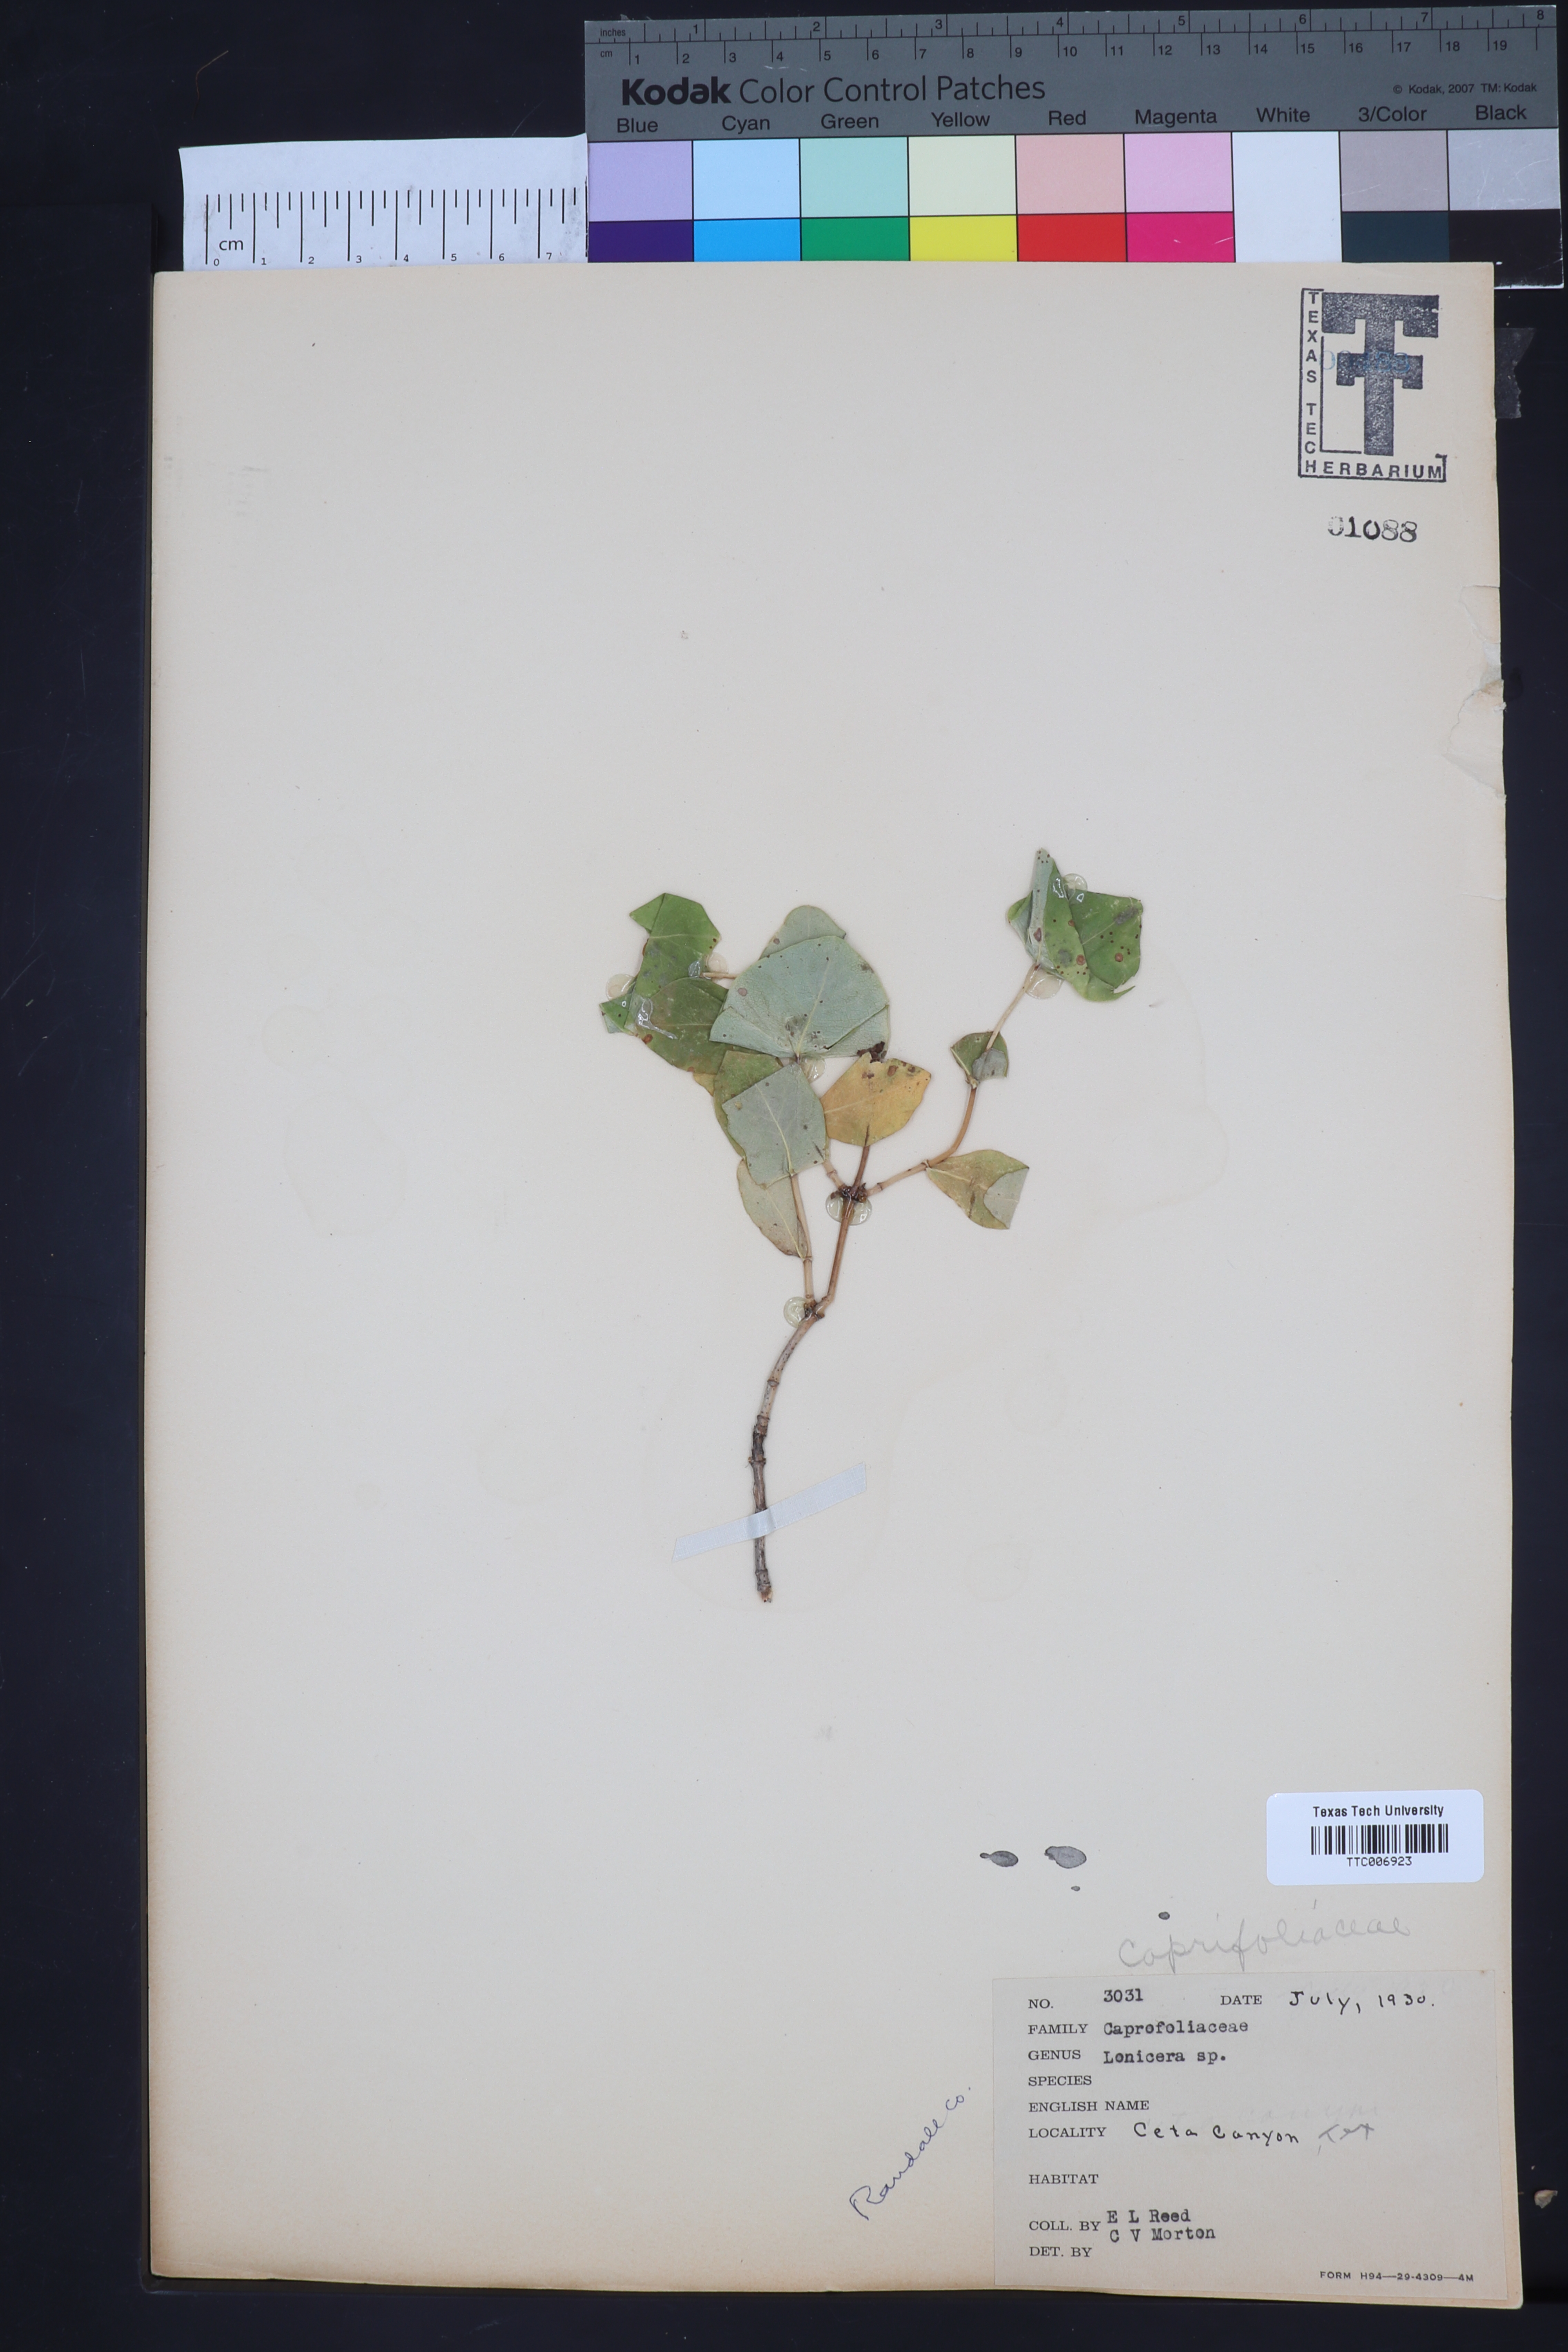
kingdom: Plantae
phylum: Tracheophyta
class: Magnoliopsida
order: Dipsacales
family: Caprifoliaceae
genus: Lonicera
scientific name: Lonicera albiflora
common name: White honeysuckle
